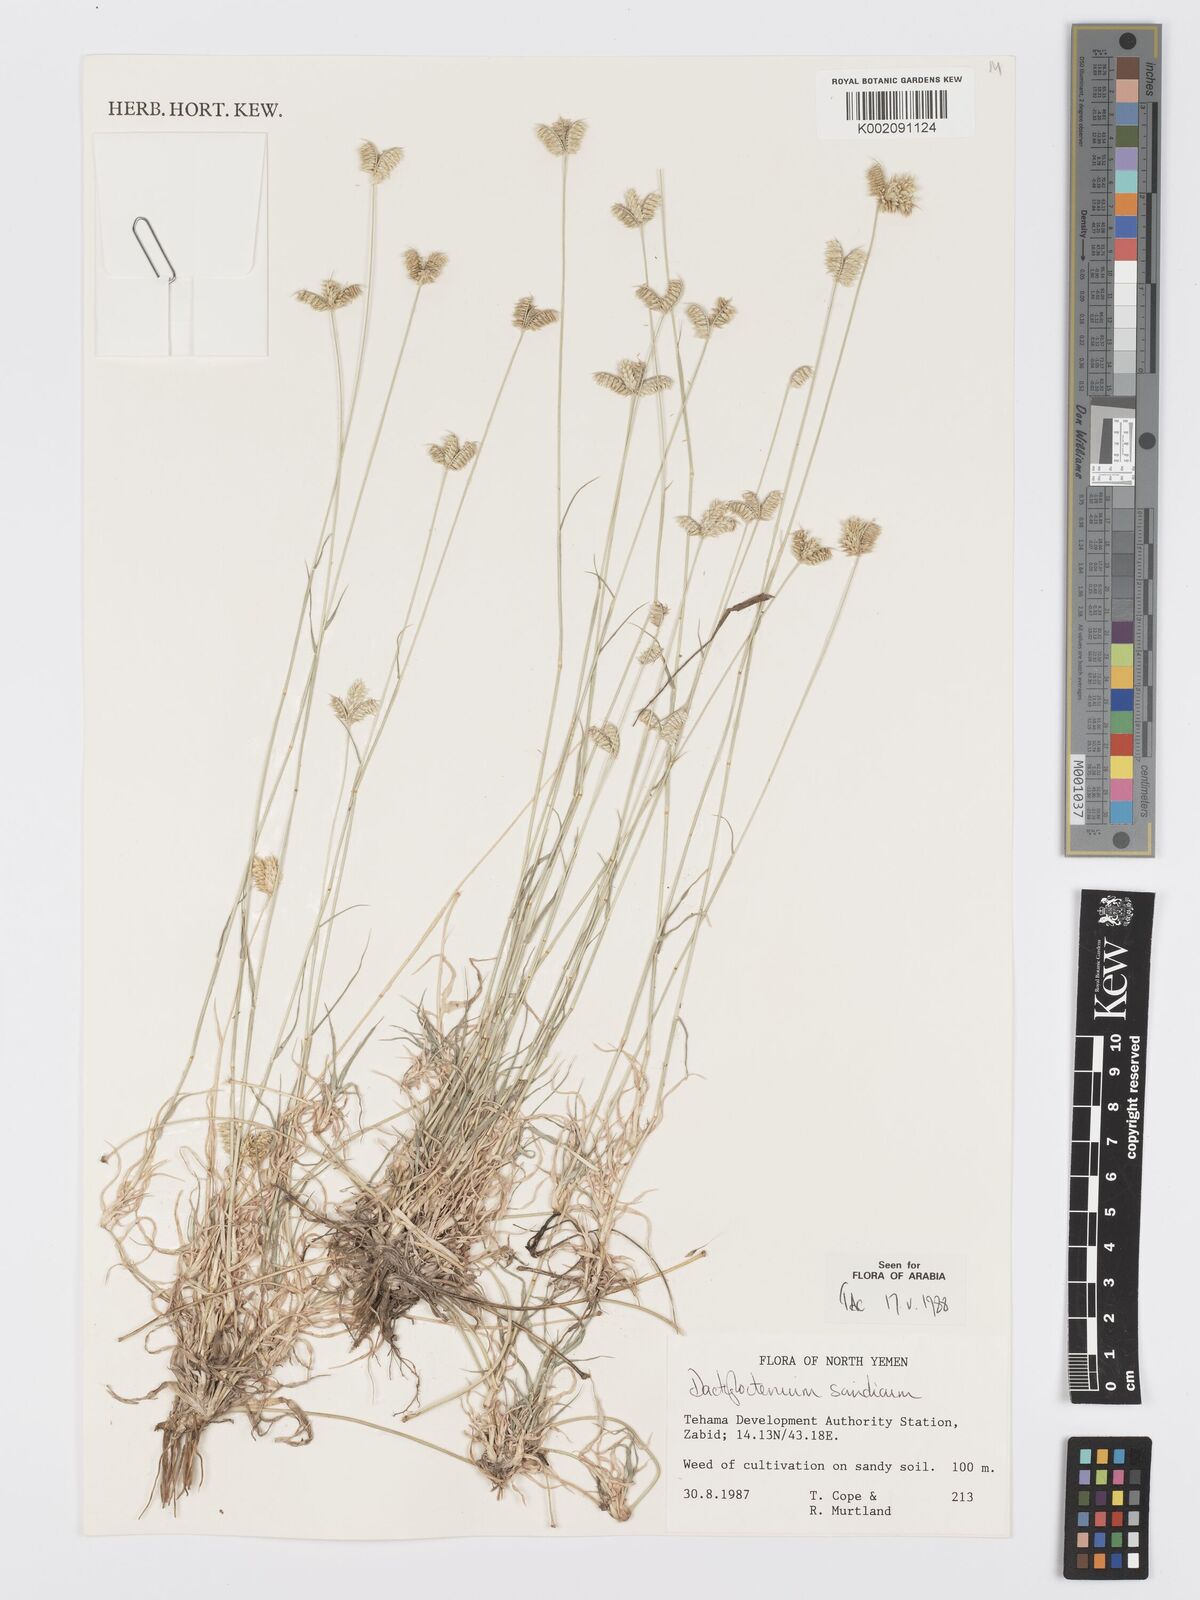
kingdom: Plantae
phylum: Tracheophyta
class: Liliopsida
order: Poales
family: Poaceae
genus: Dactyloctenium
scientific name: Dactyloctenium scindicum
